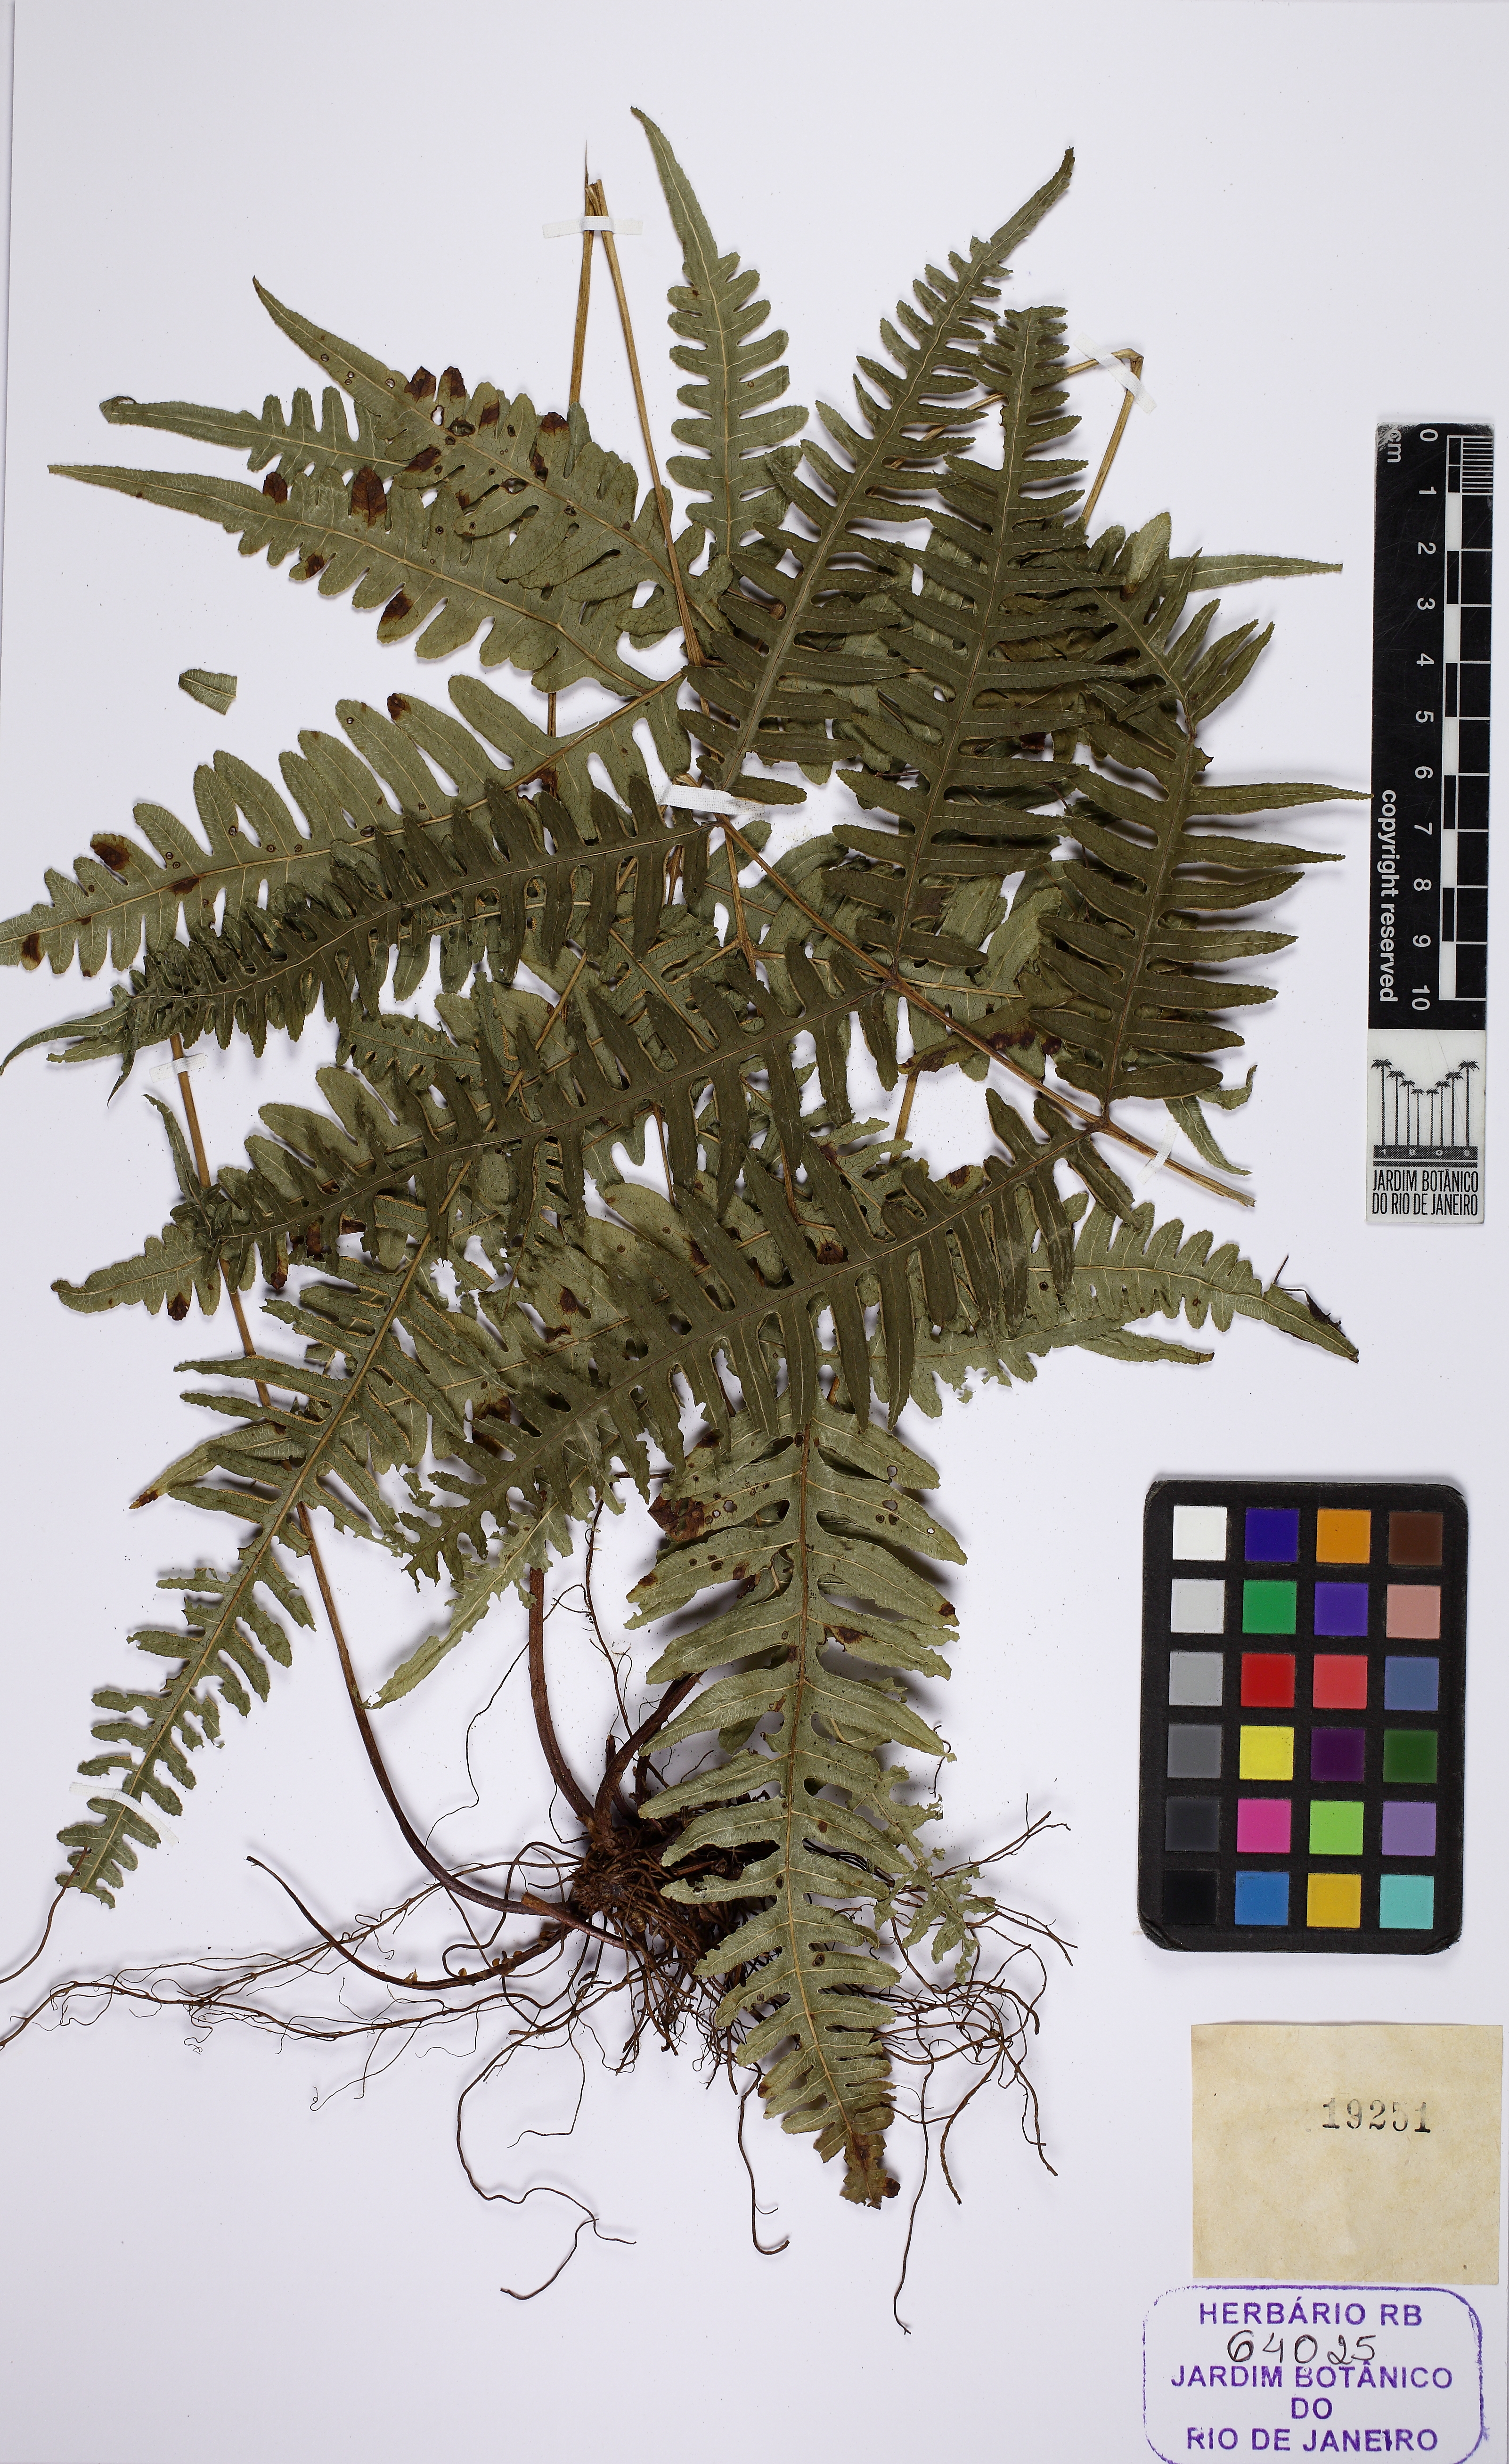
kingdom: Plantae
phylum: Tracheophyta
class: Polypodiopsida
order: Polypodiales
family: Pteridaceae
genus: Pteris
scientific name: Pteris decurrens
